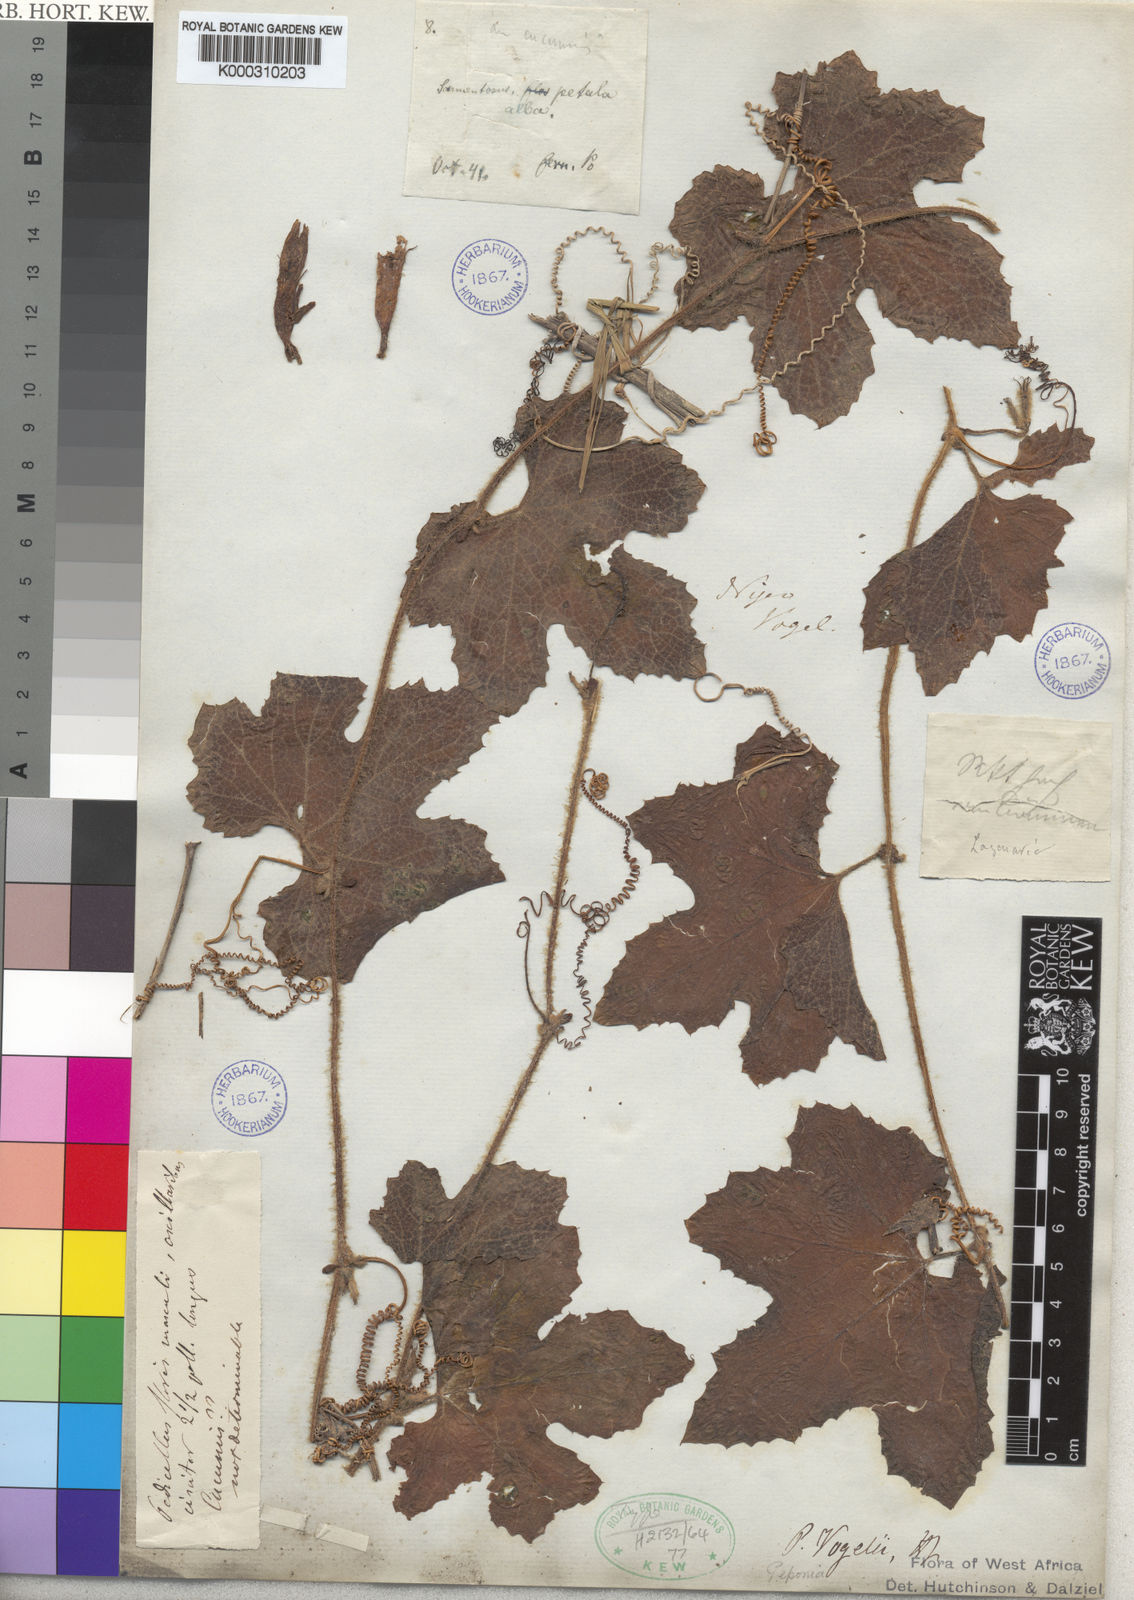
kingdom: Plantae
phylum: Tracheophyta
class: Magnoliopsida
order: Cucurbitales
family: Cucurbitaceae
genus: Peponium
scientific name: Peponium vogelii
